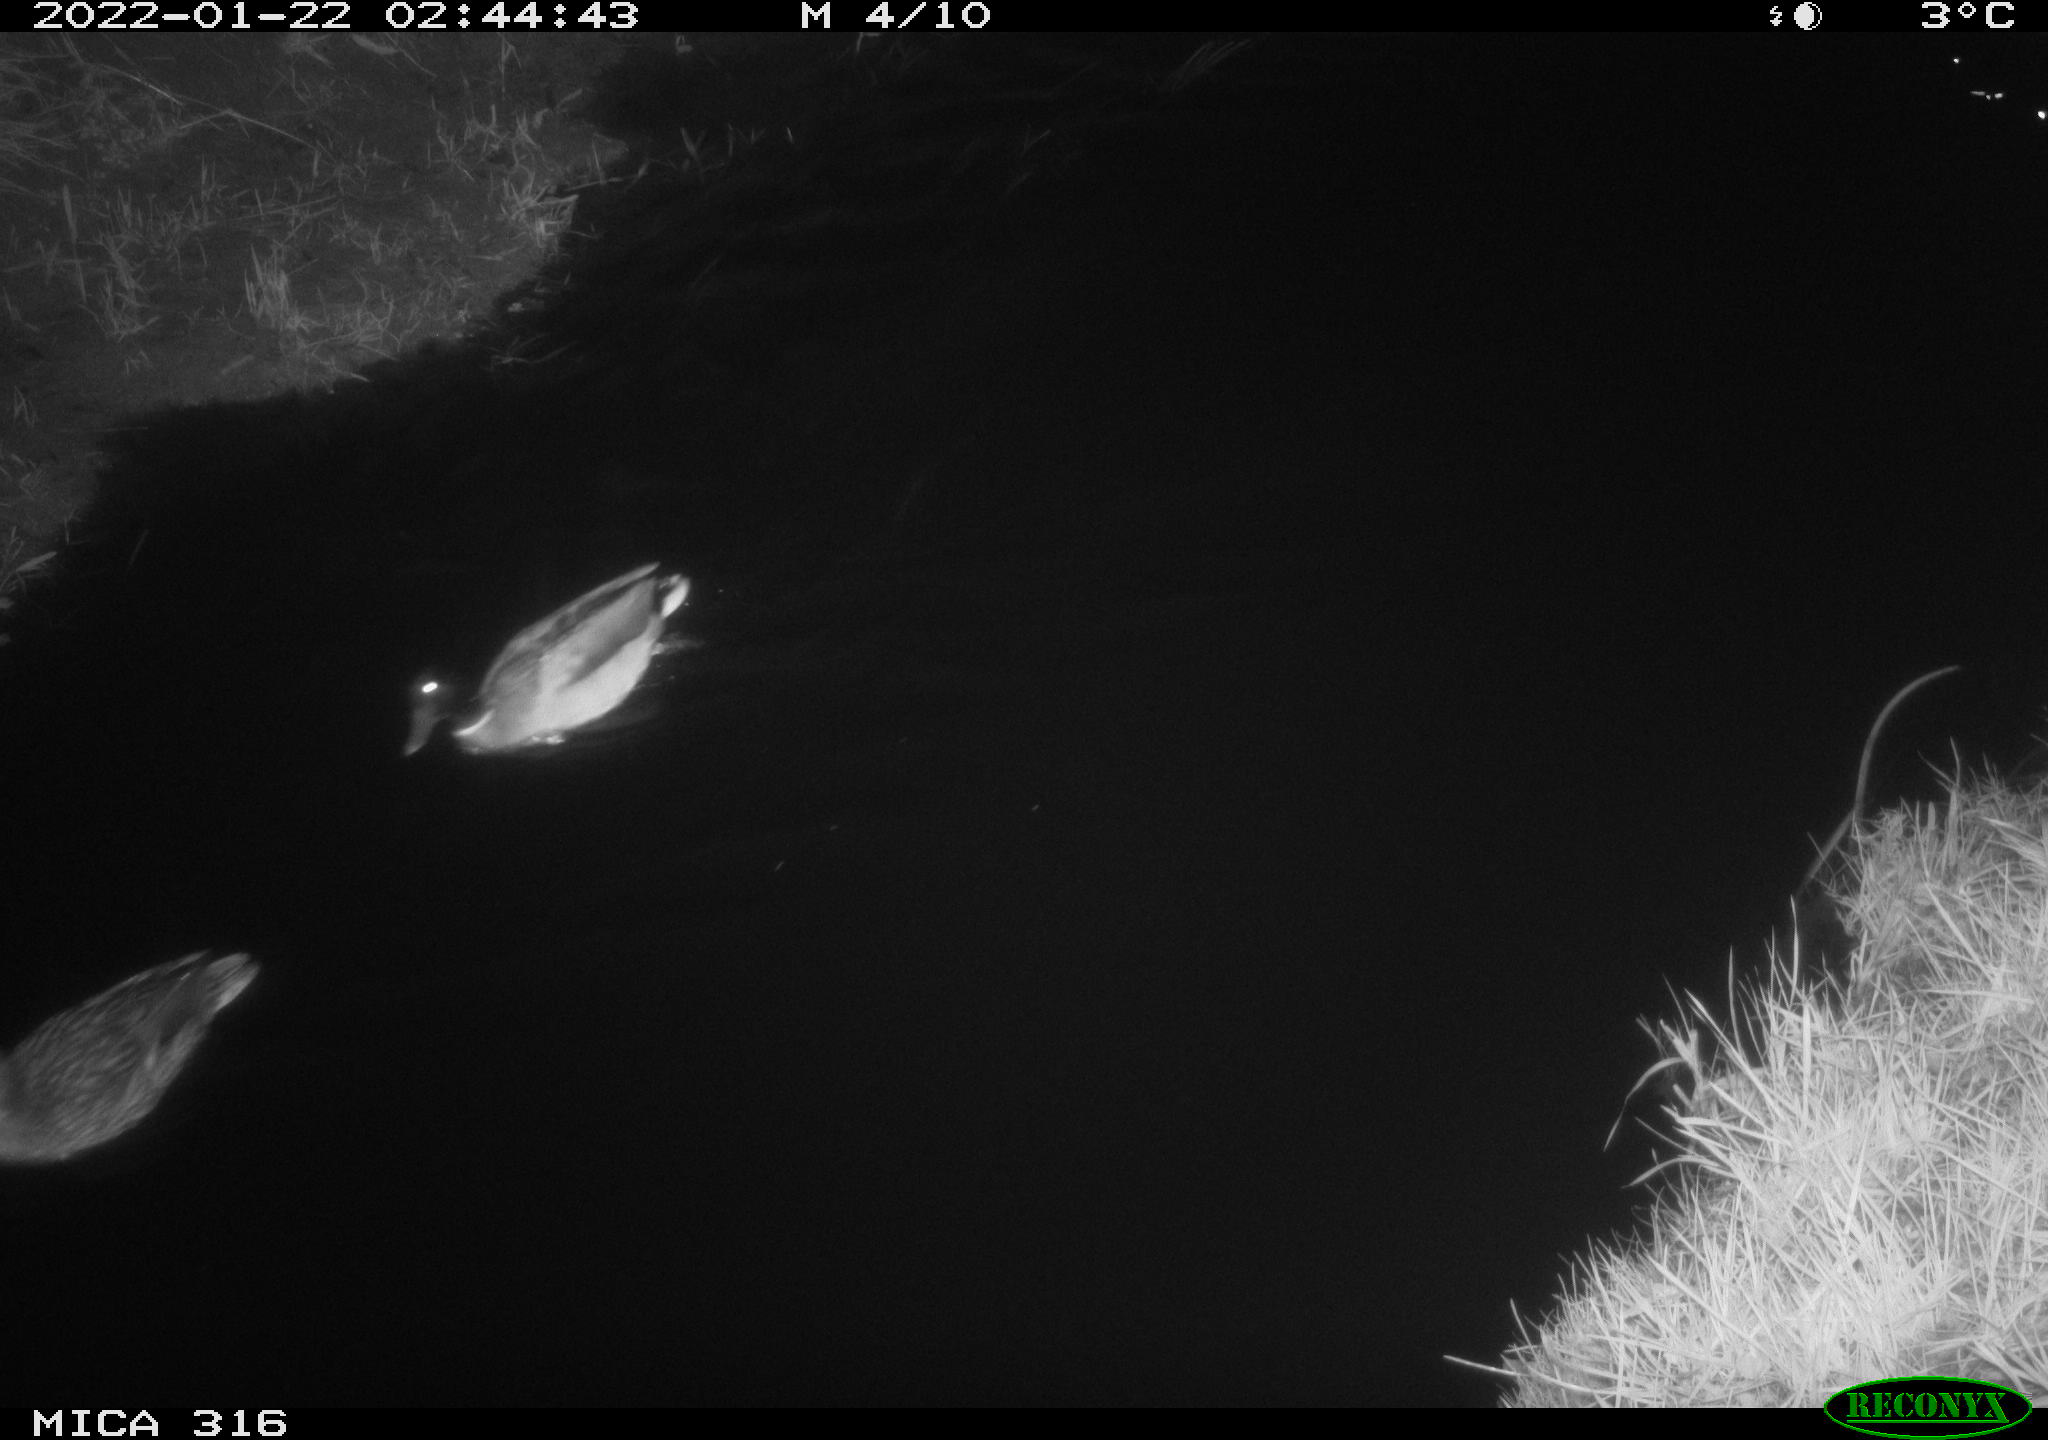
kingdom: Animalia
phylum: Chordata
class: Aves
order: Anseriformes
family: Anatidae
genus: Anas
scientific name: Anas platyrhynchos
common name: Mallard
